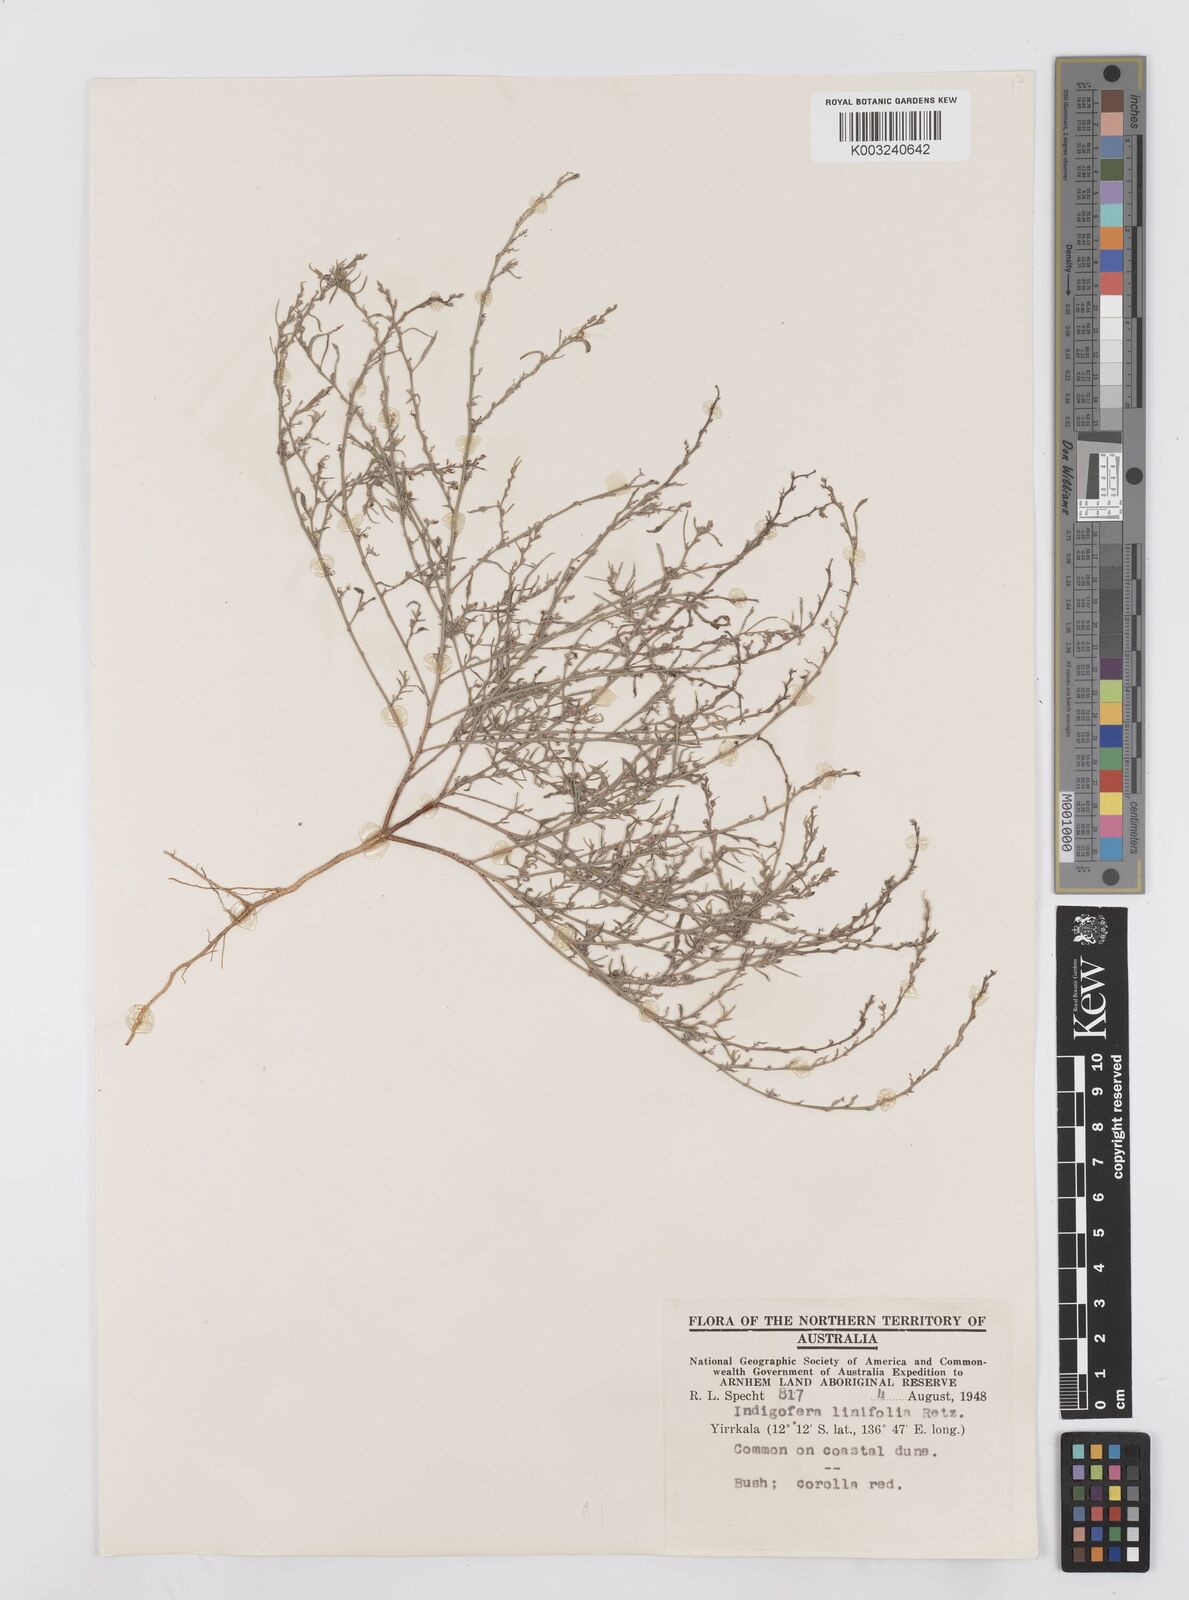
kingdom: Plantae
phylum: Tracheophyta
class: Magnoliopsida
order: Fabales
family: Fabaceae
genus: Indigofera
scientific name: Indigofera linifolia
